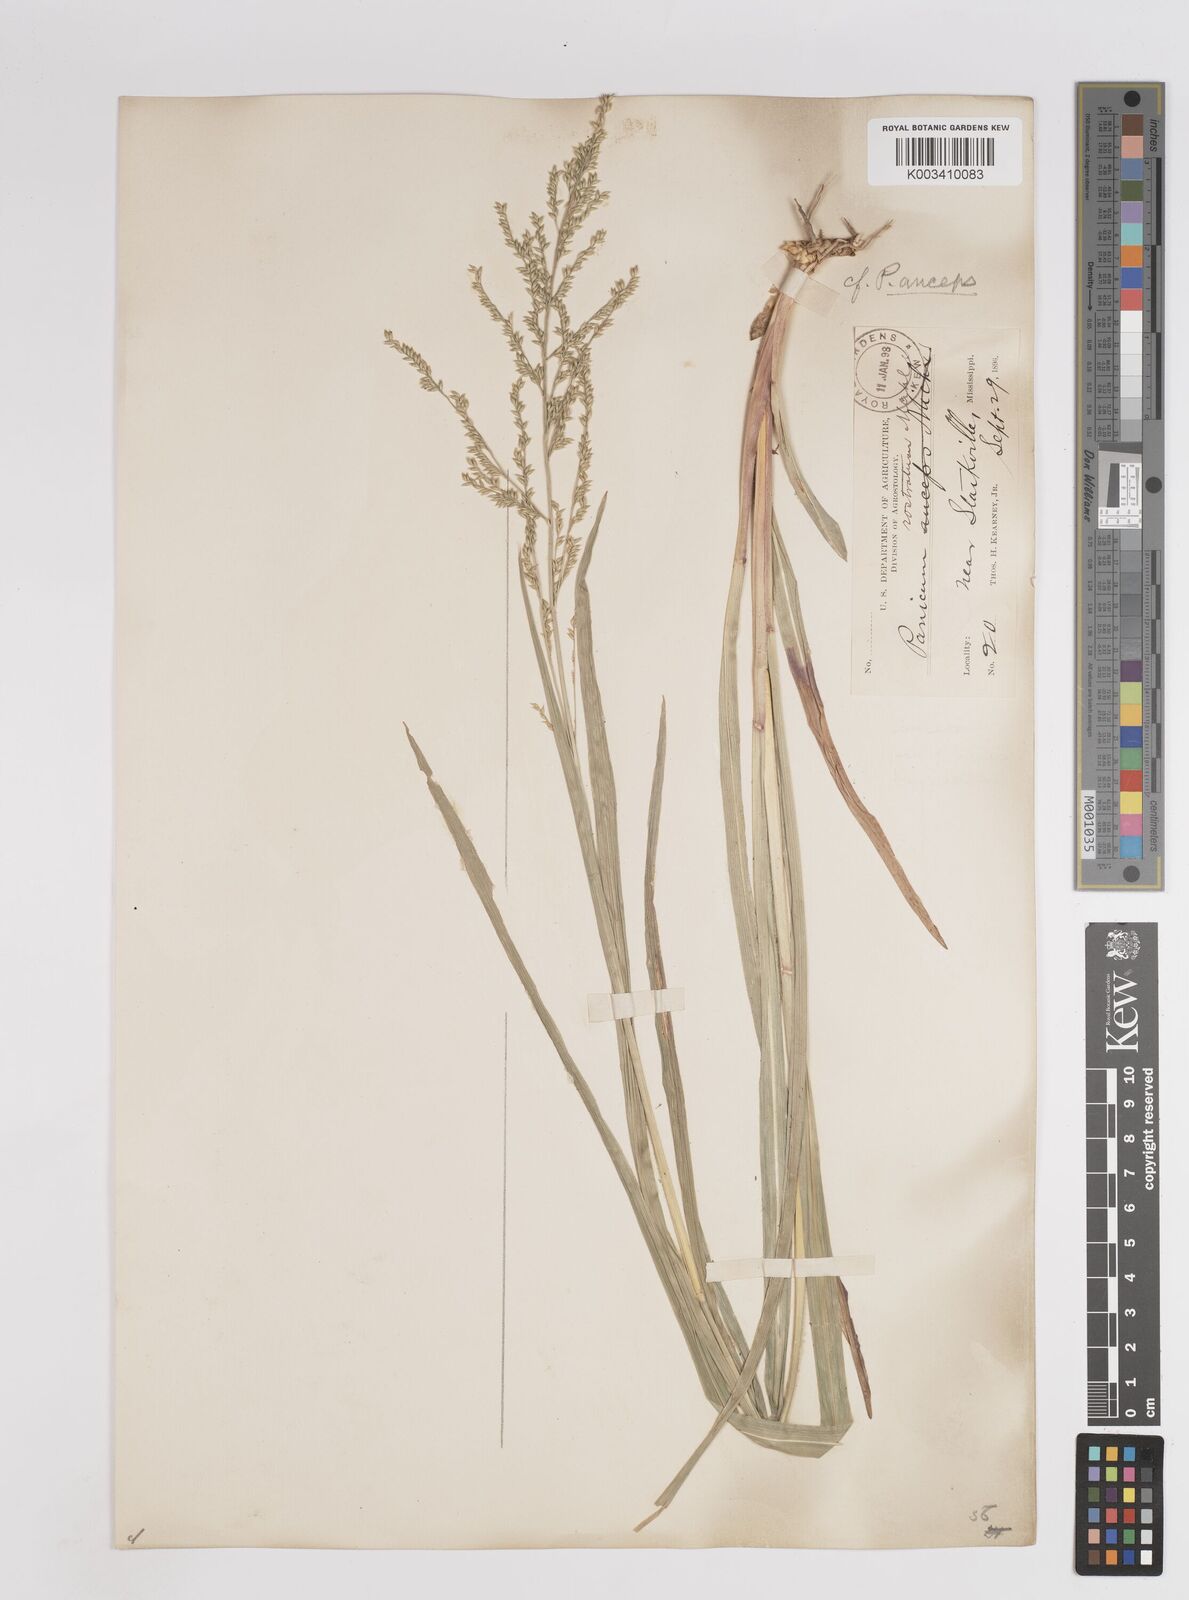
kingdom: Plantae
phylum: Tracheophyta
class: Liliopsida
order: Poales
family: Poaceae
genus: Coleataenia
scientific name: Coleataenia anceps
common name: Beaked panic grass
